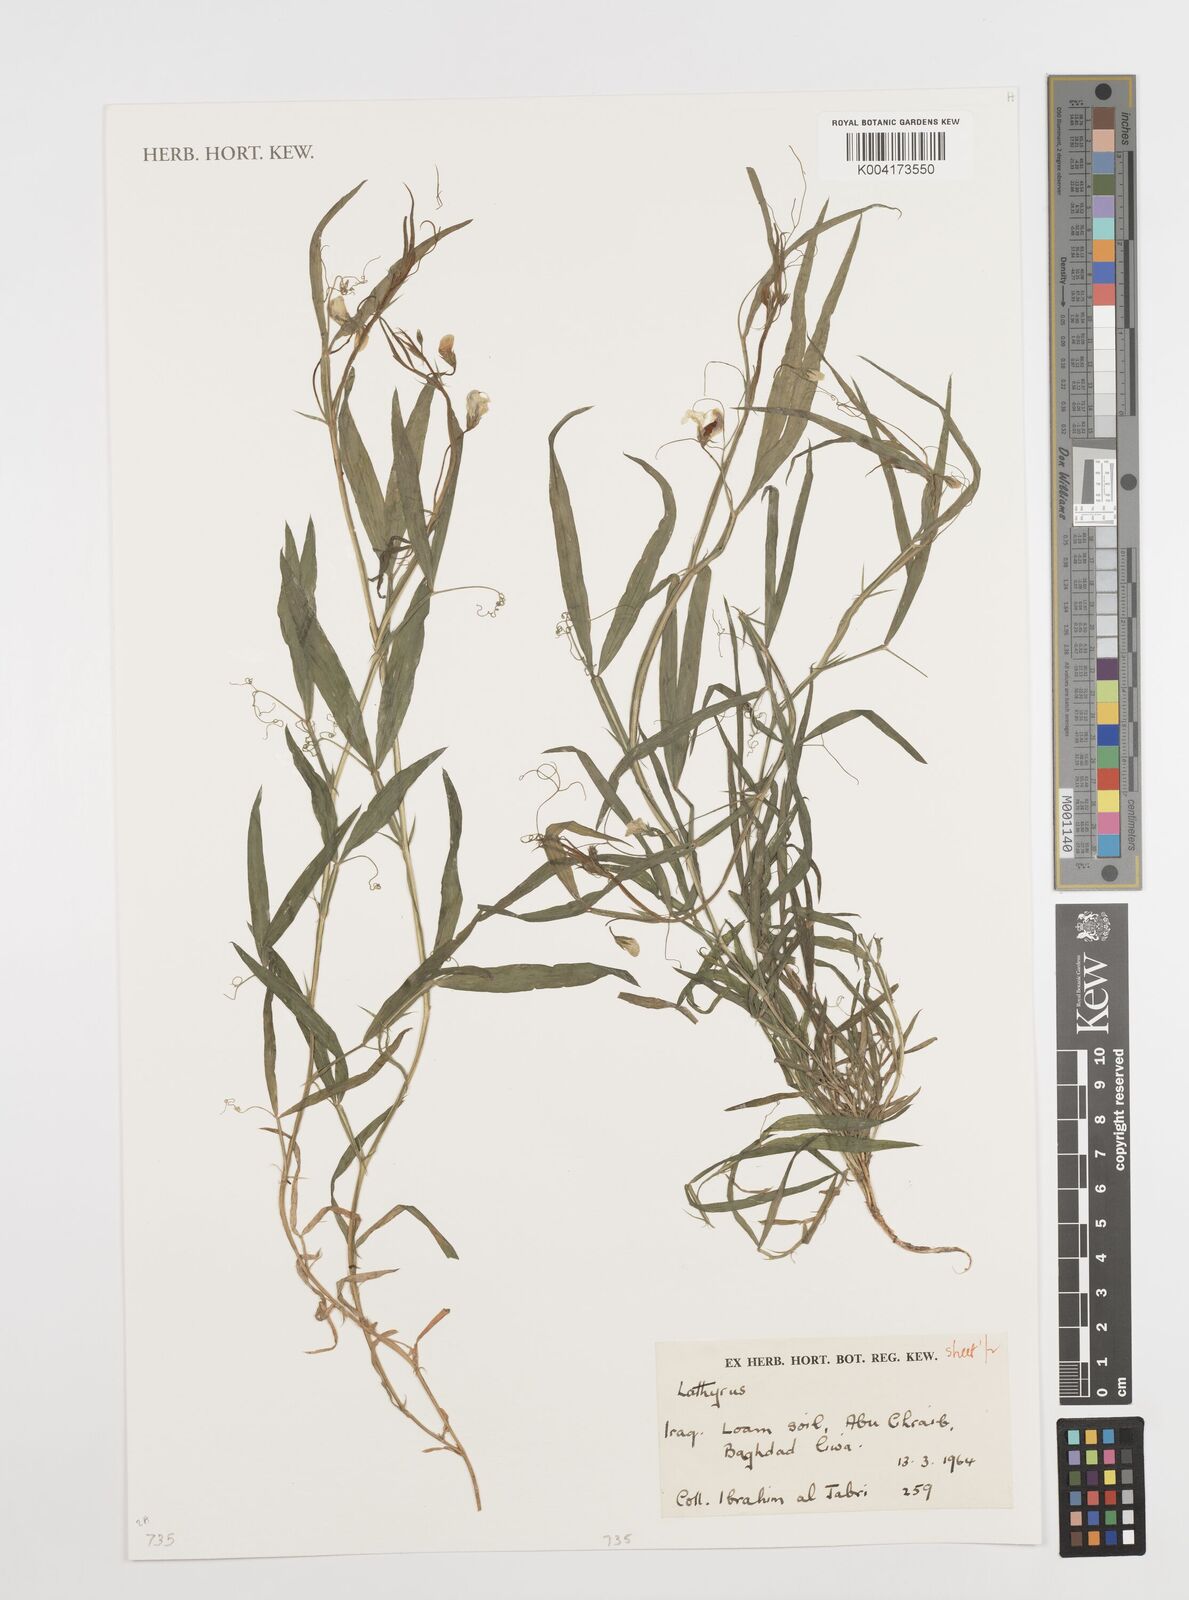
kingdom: Plantae
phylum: Tracheophyta
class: Magnoliopsida
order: Fabales
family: Fabaceae
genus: Lathyrus
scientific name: Lathyrus
